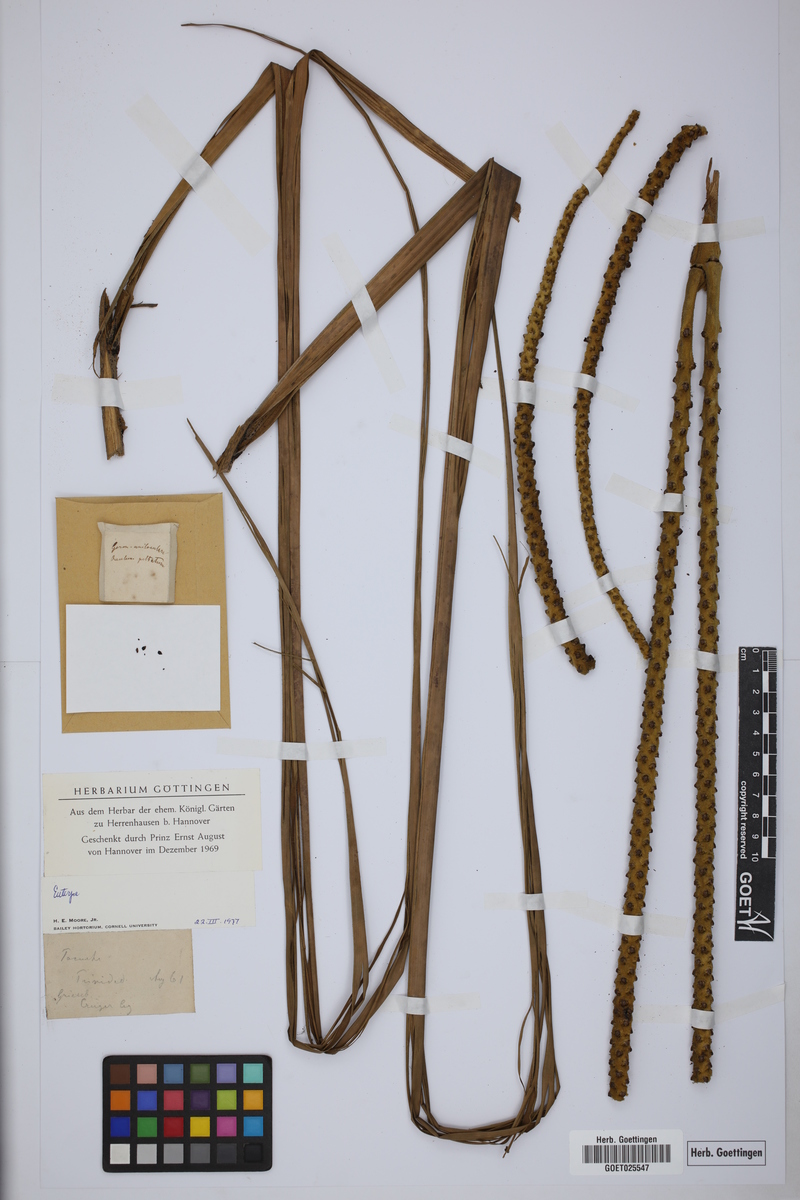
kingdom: Plantae
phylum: Tracheophyta
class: Liliopsida
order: Arecales
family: Arecaceae
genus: Euterpe
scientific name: Euterpe
